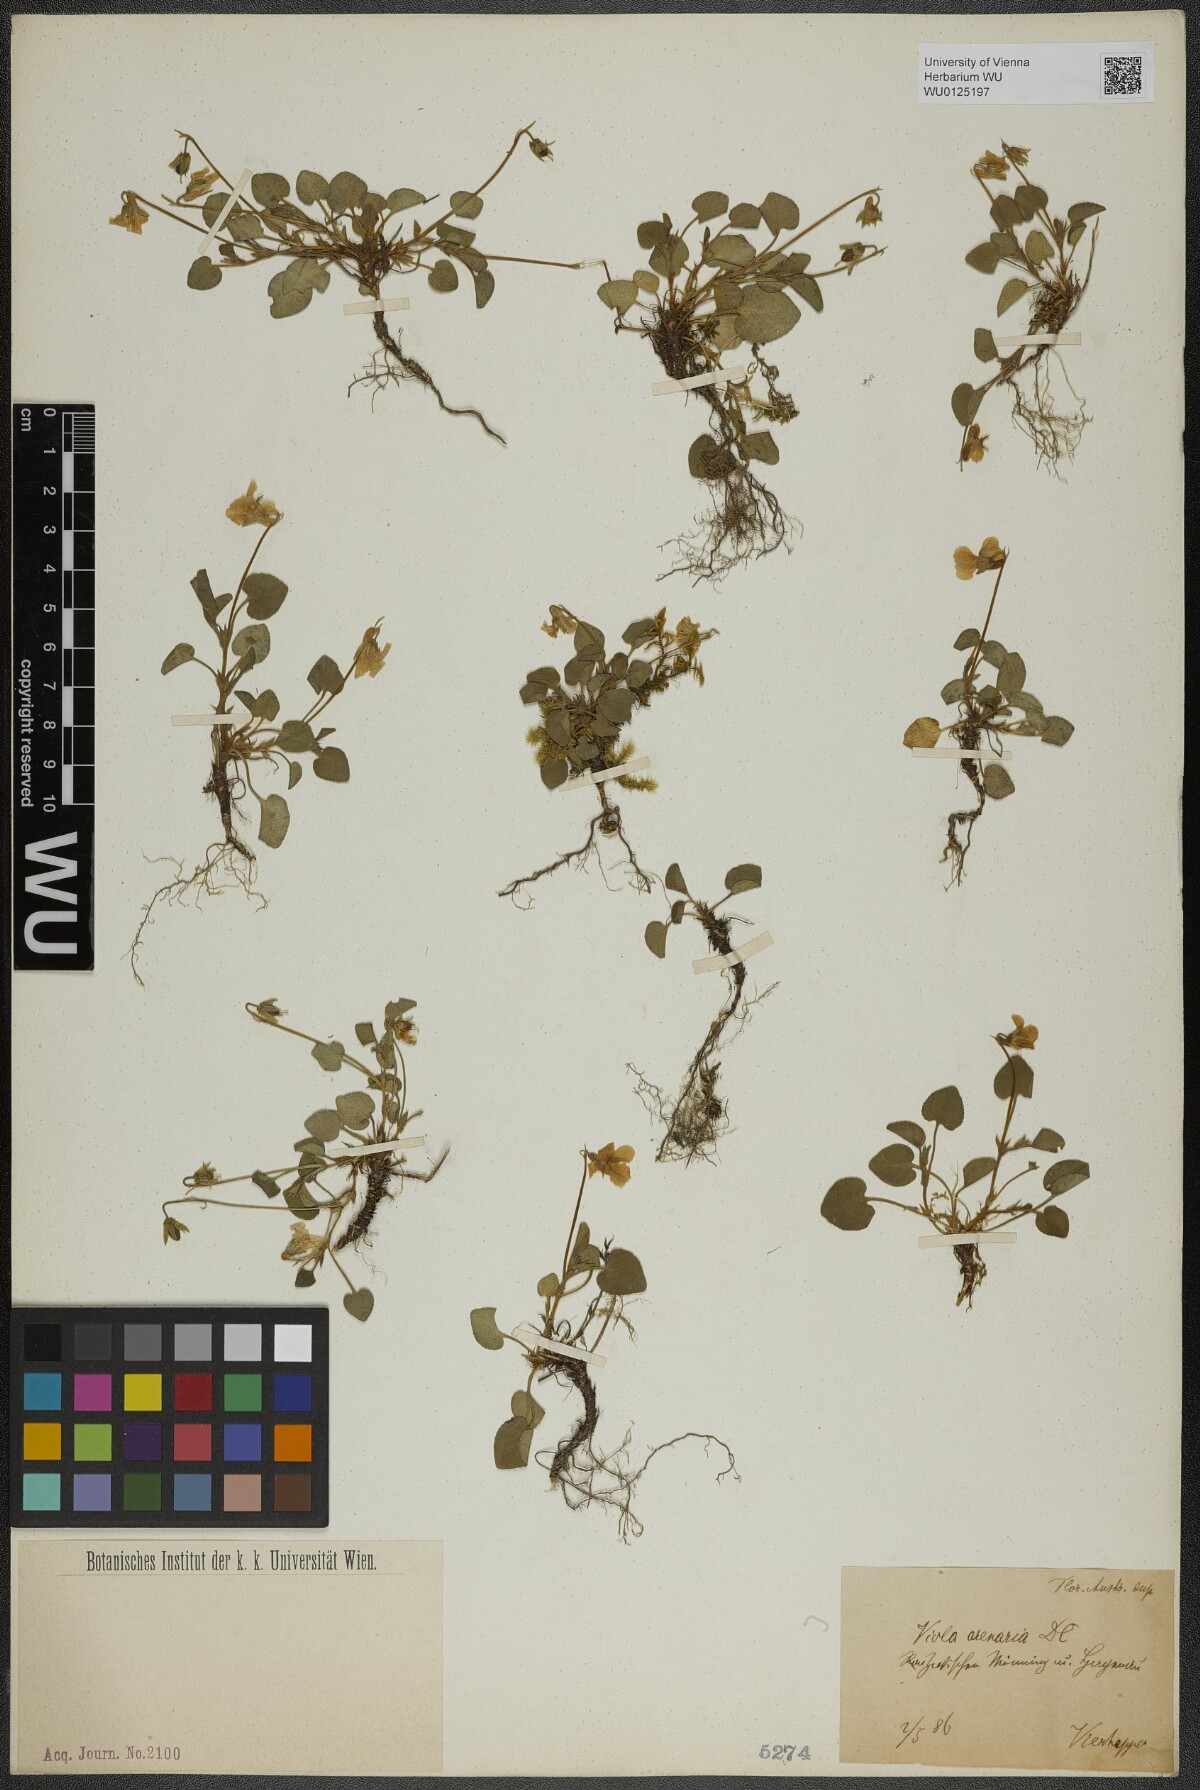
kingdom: Plantae
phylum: Tracheophyta
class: Magnoliopsida
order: Malpighiales
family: Violaceae
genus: Viola
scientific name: Viola rupestris
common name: Teesdale violet
